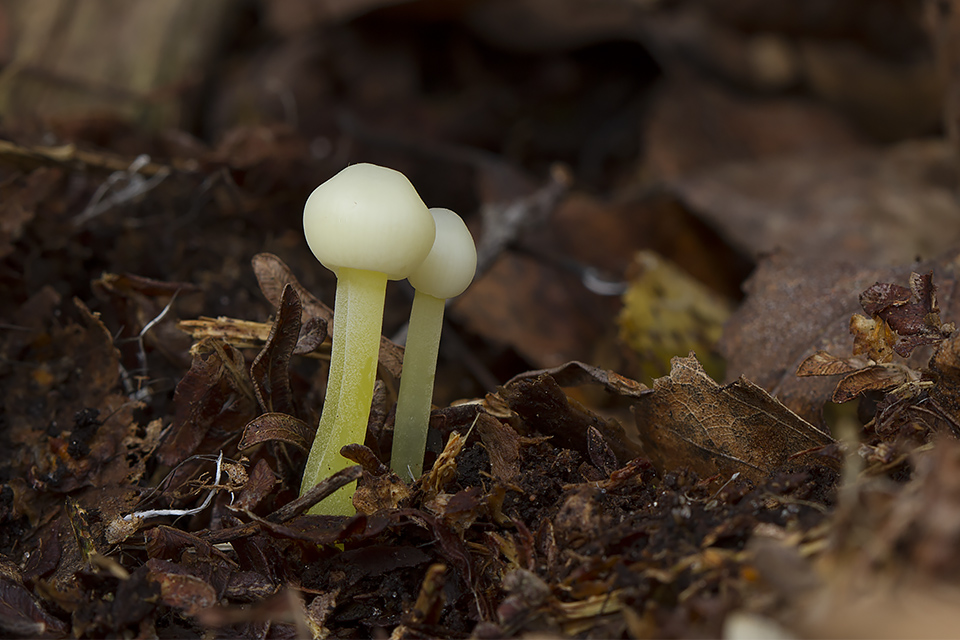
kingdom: Fungi
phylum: Basidiomycota
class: Agaricomycetes
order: Agaricales
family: Mycenaceae
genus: Mycena
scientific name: Mycena epipterygia
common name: gulstokket huesvamp
